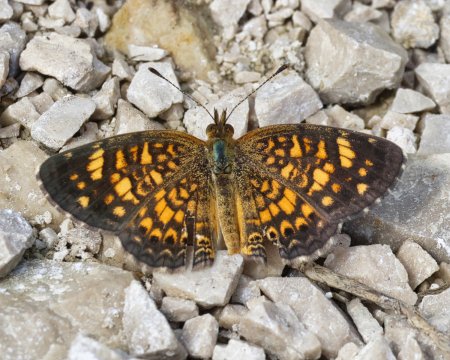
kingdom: Animalia
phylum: Arthropoda
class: Insecta
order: Lepidoptera
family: Nymphalidae
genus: Phyciodes
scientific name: Phyciodes vesta
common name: Vesta Crescent
